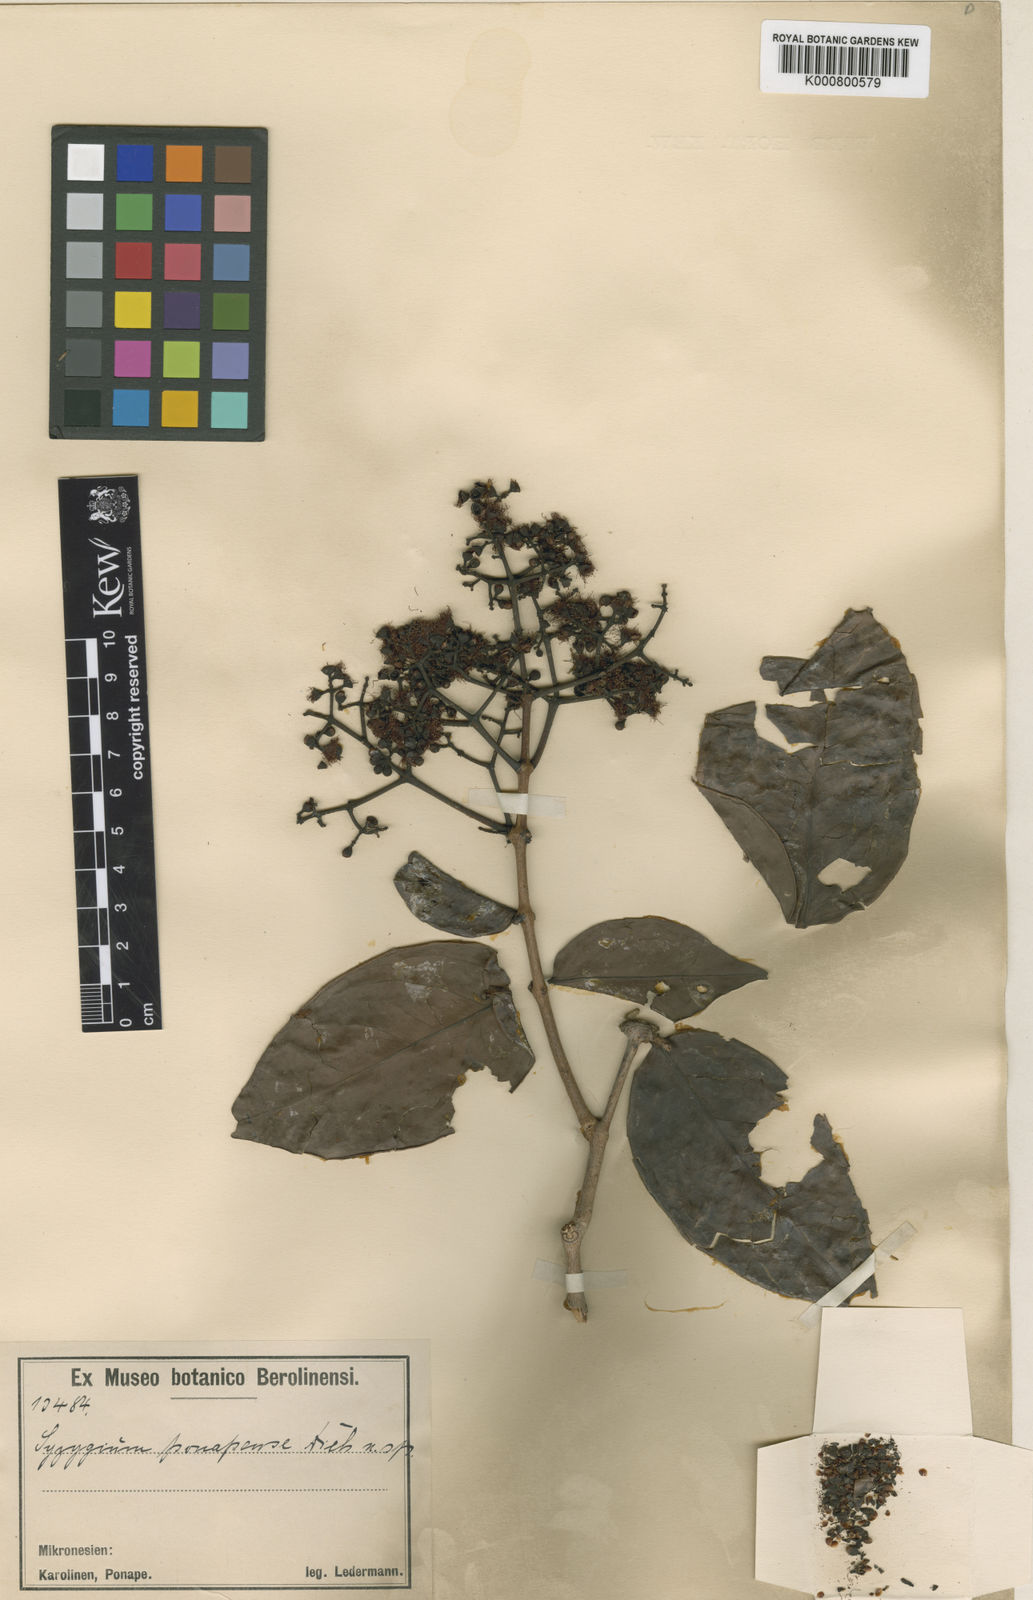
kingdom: Plantae
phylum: Tracheophyta
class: Magnoliopsida
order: Myrtales
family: Myrtaceae
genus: Syzygium
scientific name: Syzygium carolinense
